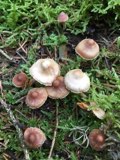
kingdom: Fungi
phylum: Basidiomycota
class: Agaricomycetes
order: Agaricales
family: Cortinariaceae
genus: Cortinarius
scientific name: Cortinarius aurae
